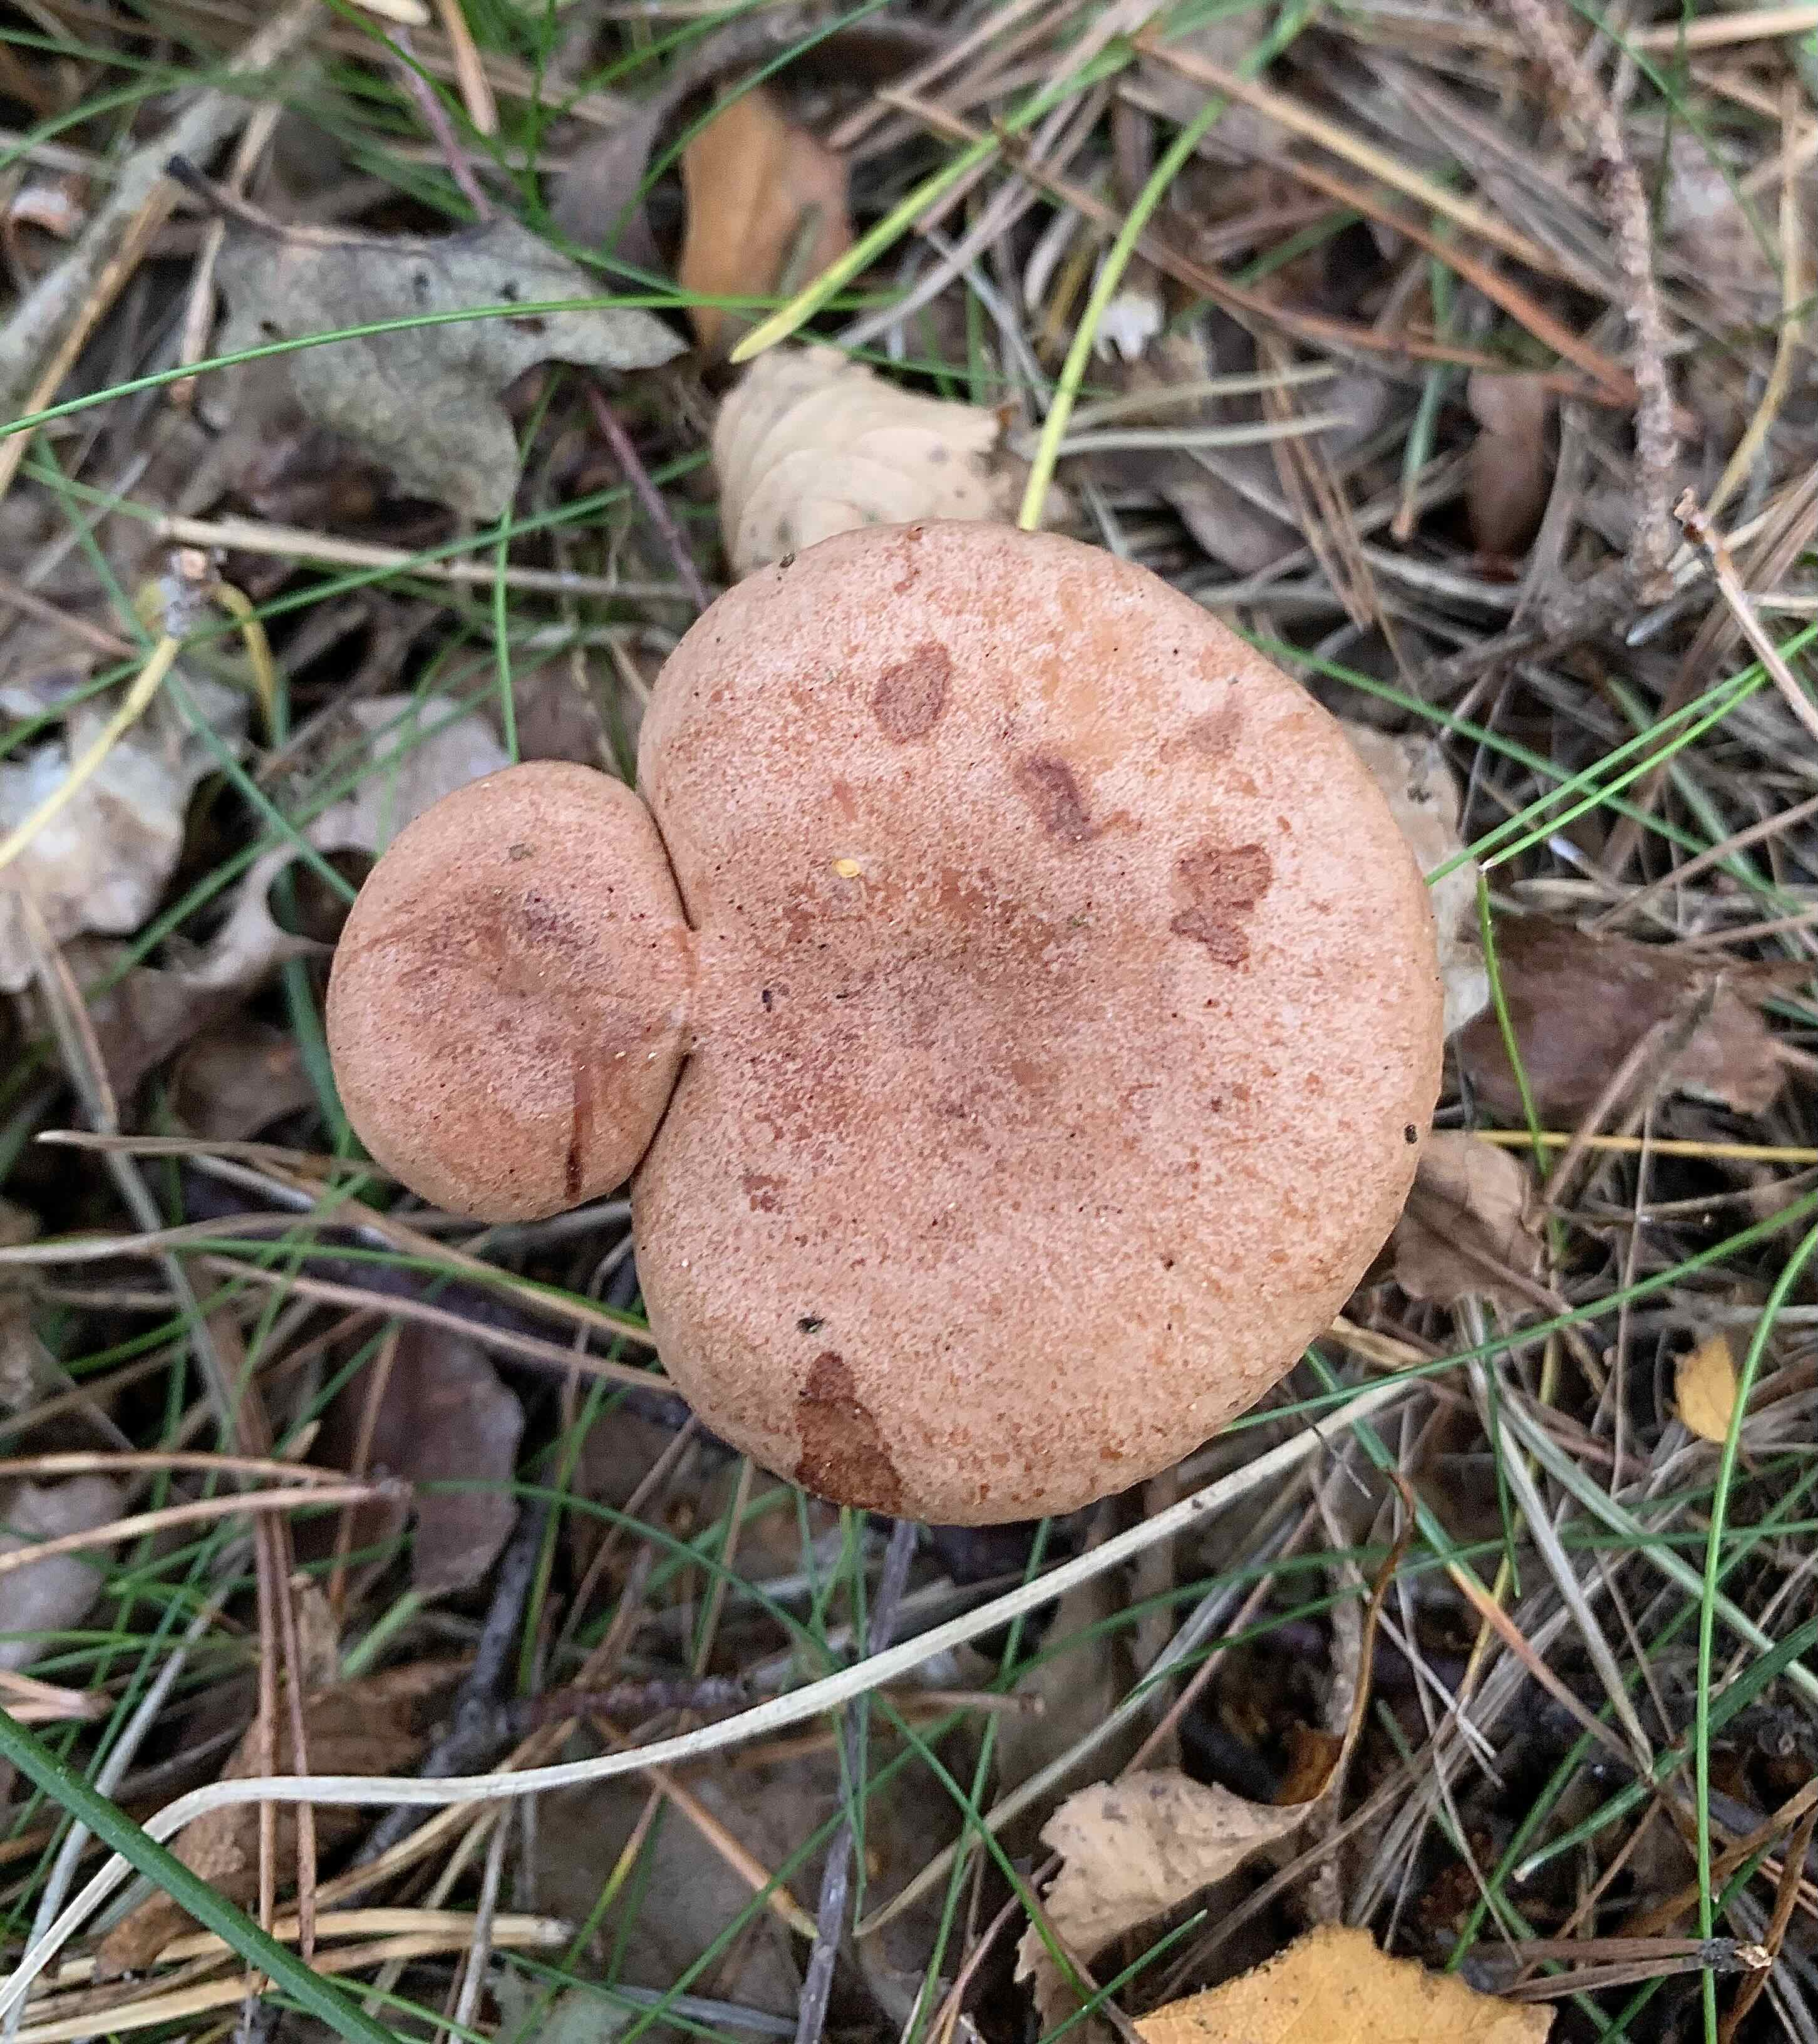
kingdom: Fungi
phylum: Basidiomycota
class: Agaricomycetes
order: Russulales
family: Russulaceae
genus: Lactarius
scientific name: Lactarius quietus
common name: ege-mælkehat
